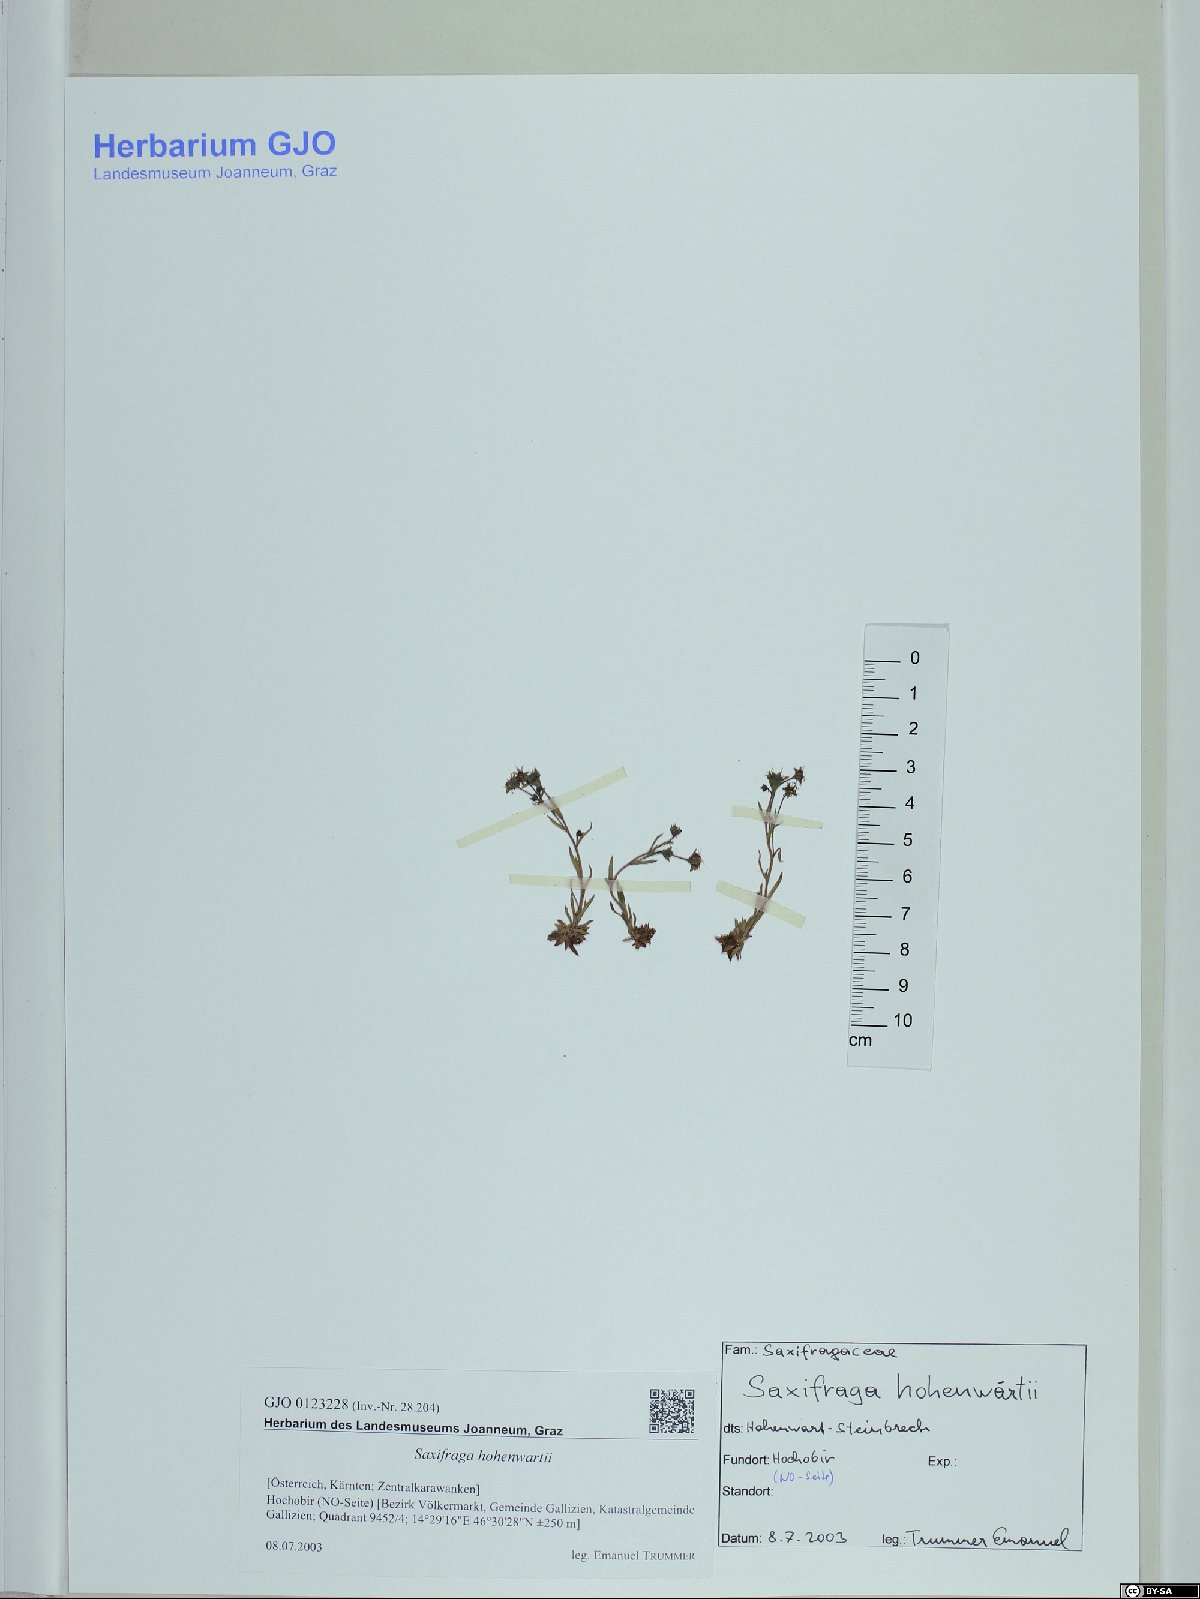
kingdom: Plantae
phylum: Tracheophyta
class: Magnoliopsida
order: Saxifragales
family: Saxifragaceae
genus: Saxifraga
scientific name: Saxifraga hohenwartii
